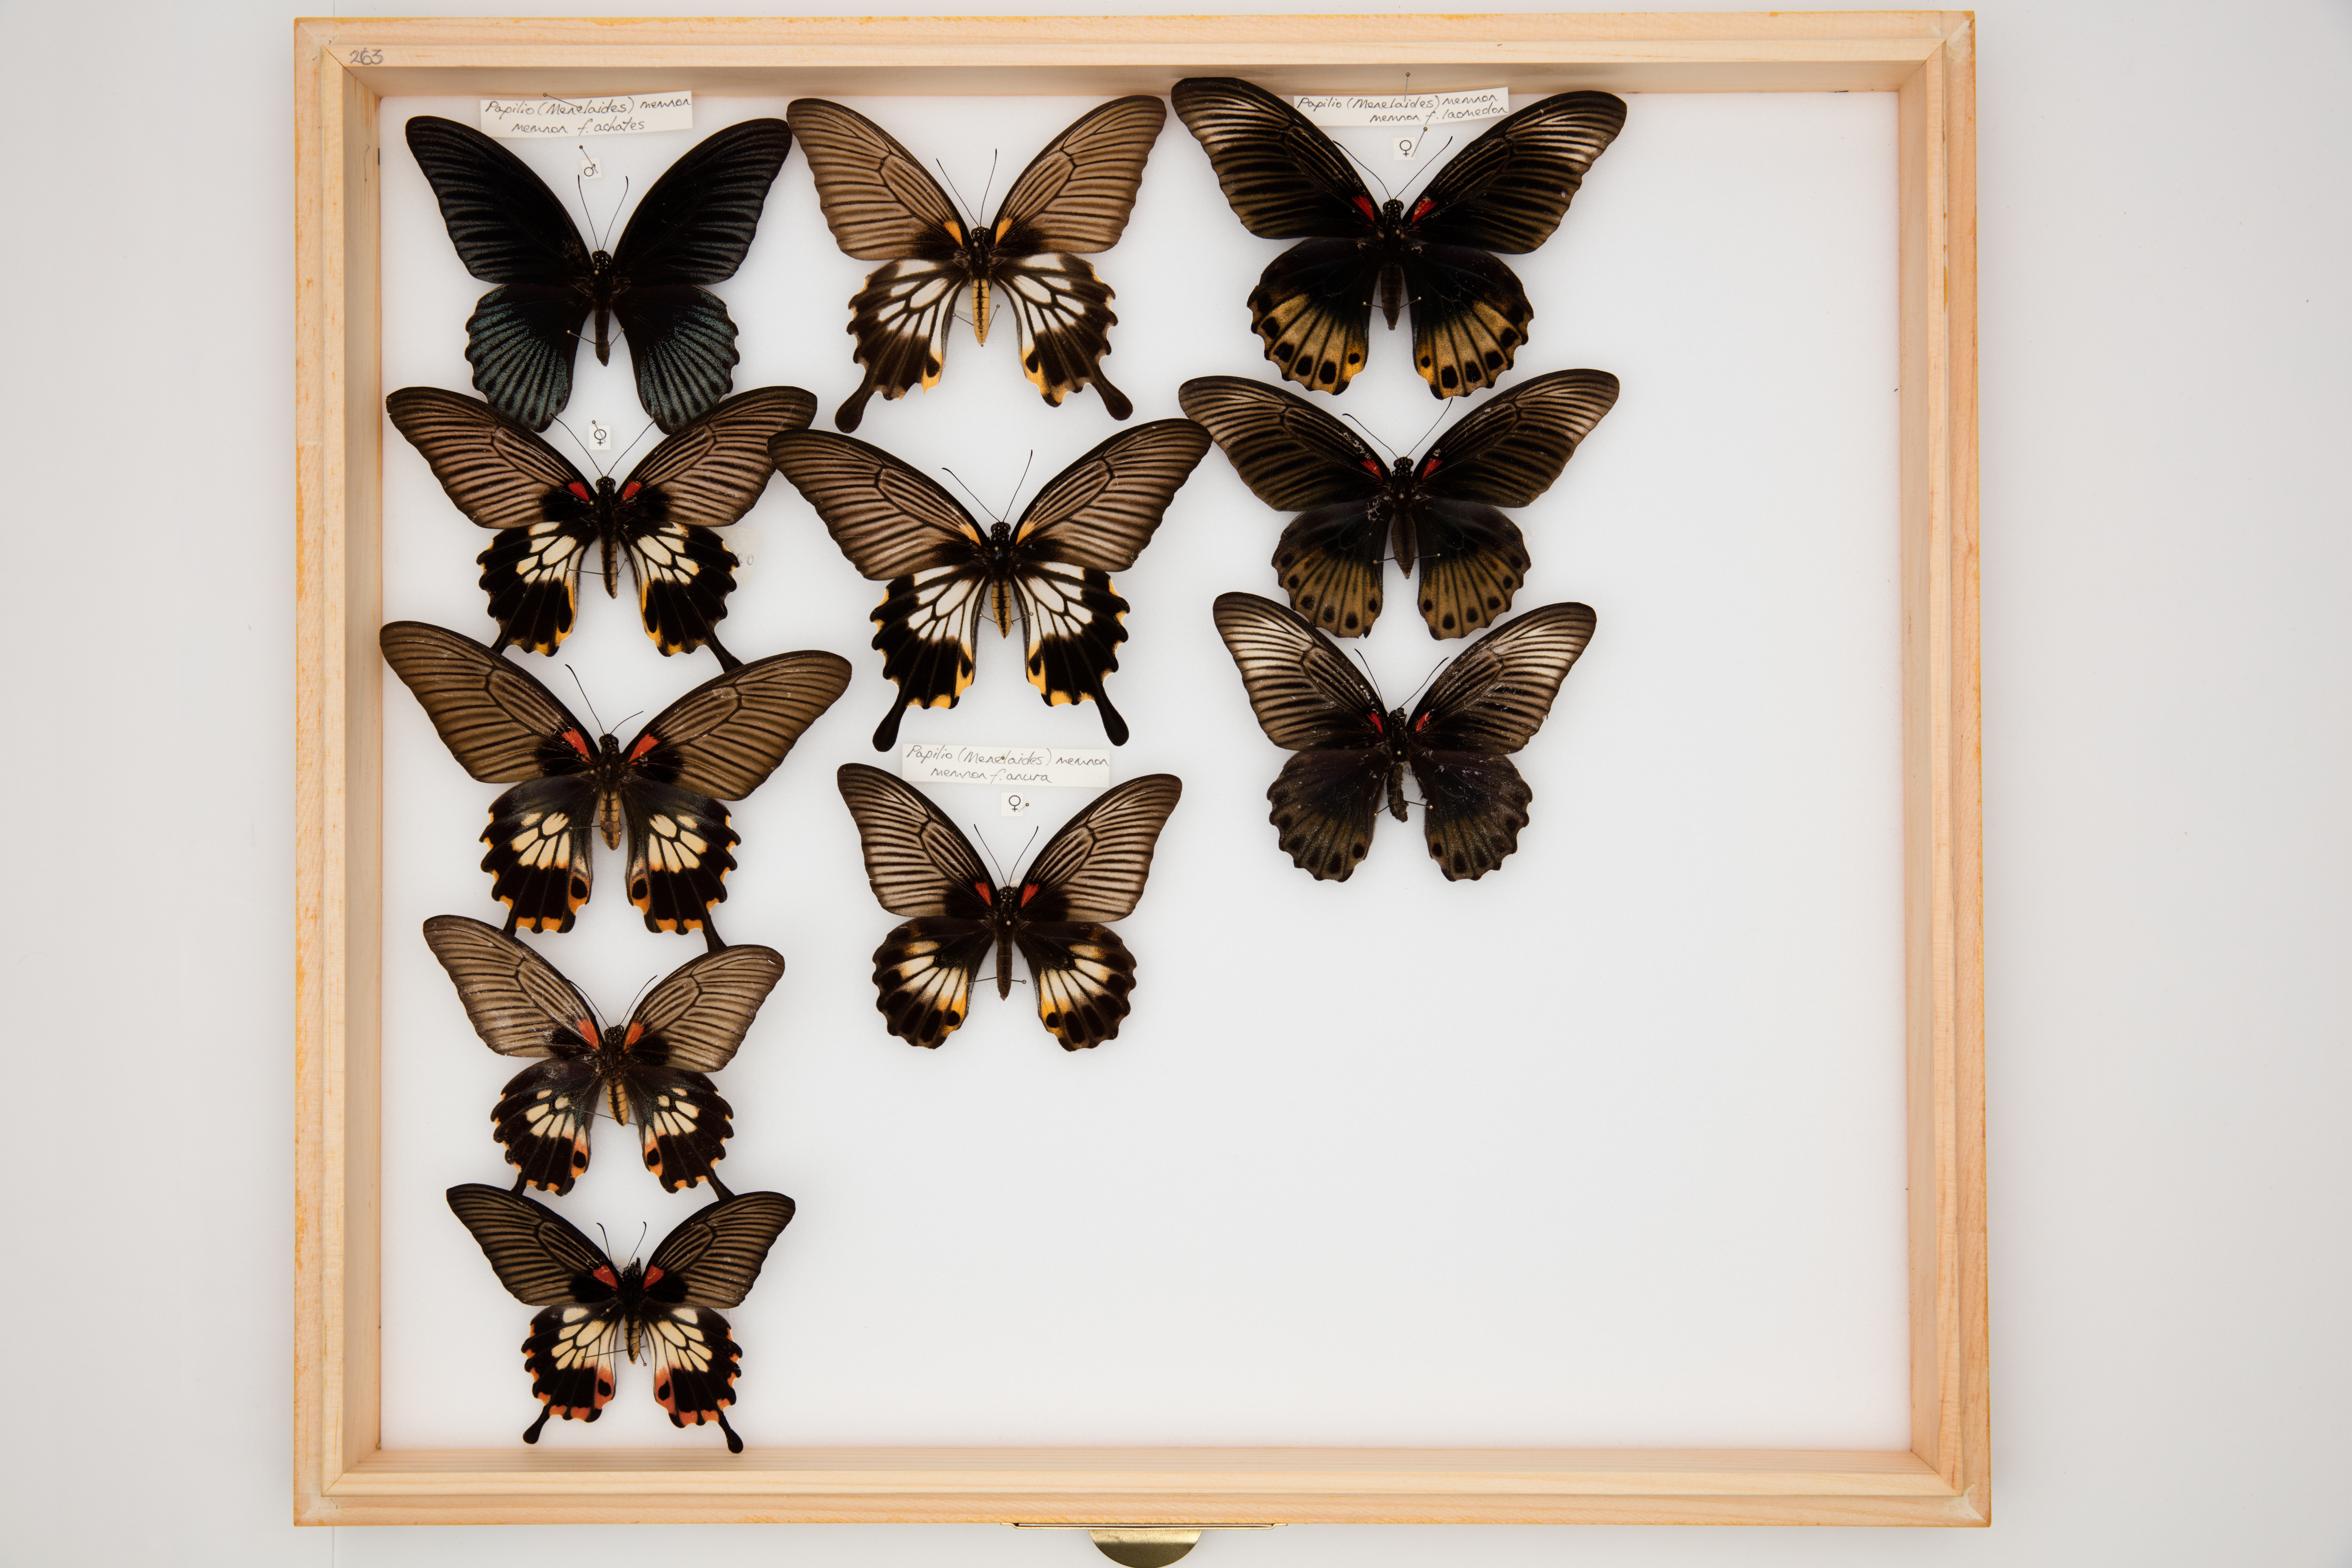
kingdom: Animalia
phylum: Arthropoda
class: Insecta
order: Lepidoptera
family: Papilionidae
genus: Papilio
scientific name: Papilio memnon
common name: Great mormon
